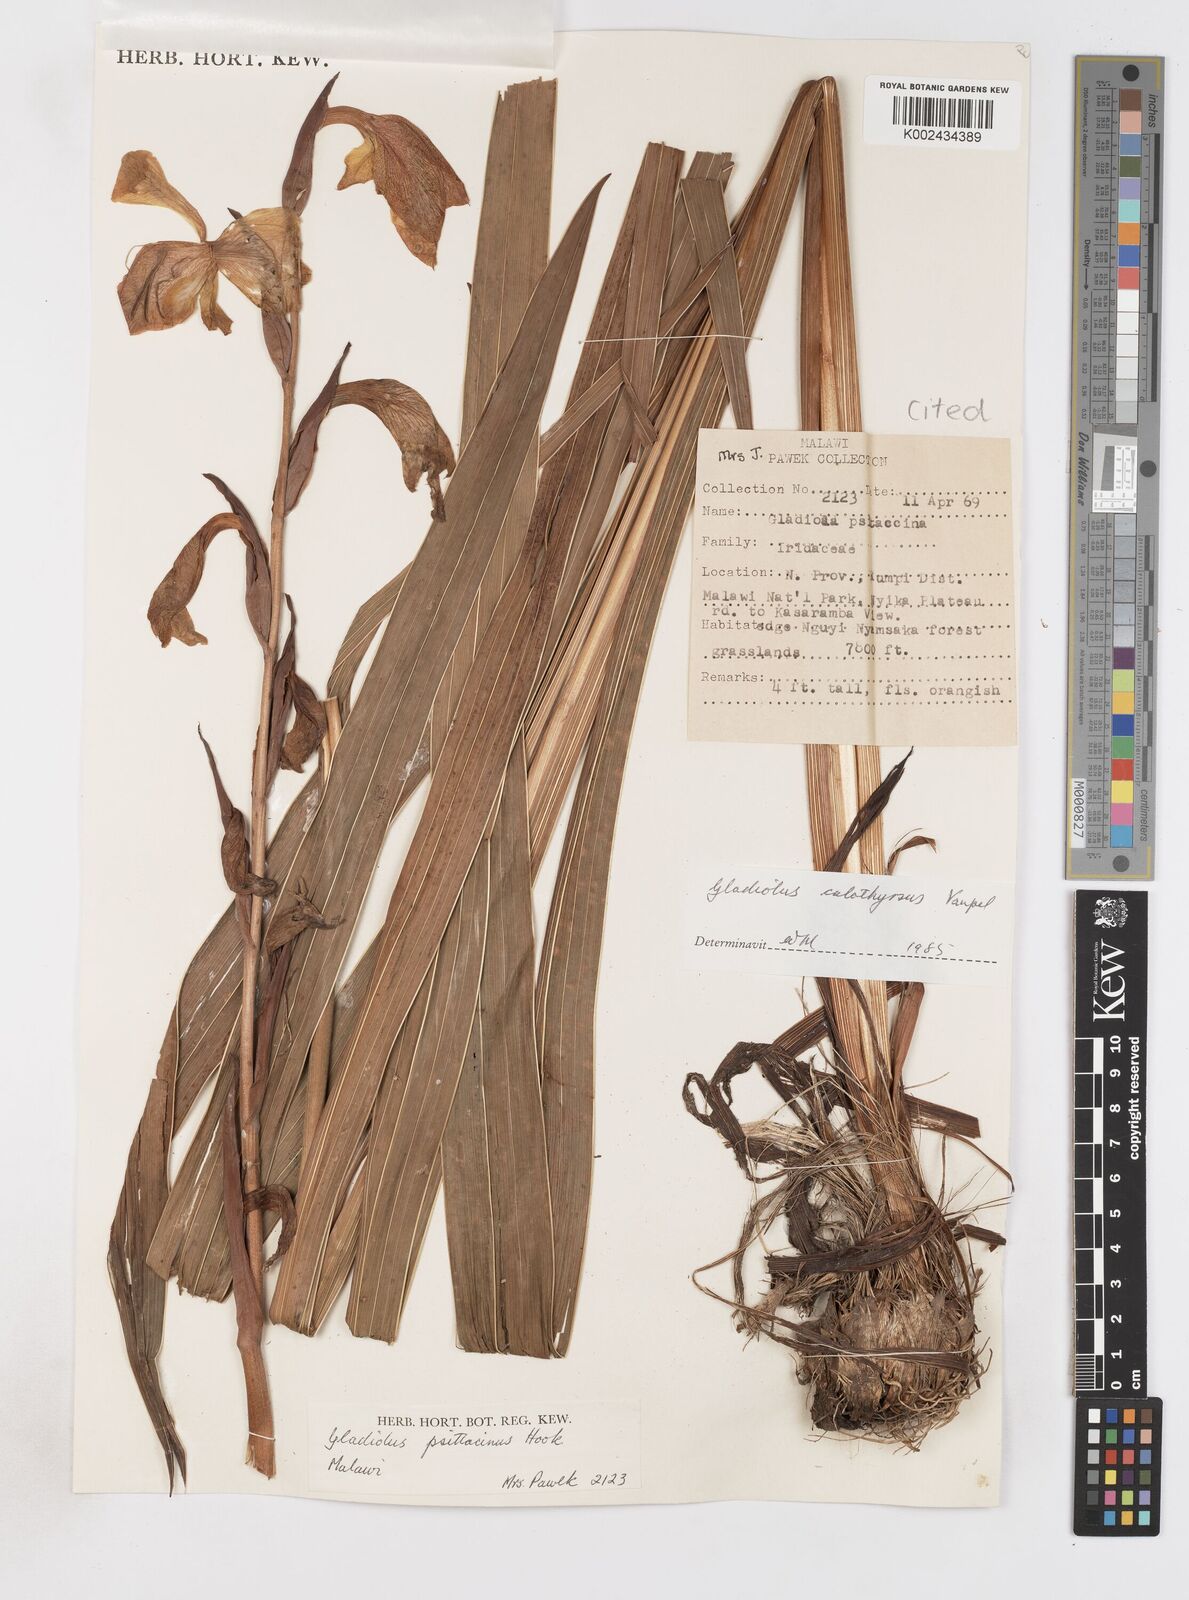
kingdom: Plantae
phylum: Tracheophyta
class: Liliopsida
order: Asparagales
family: Iridaceae
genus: Gladiolus
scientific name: Gladiolus dalenii
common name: Cornflag
